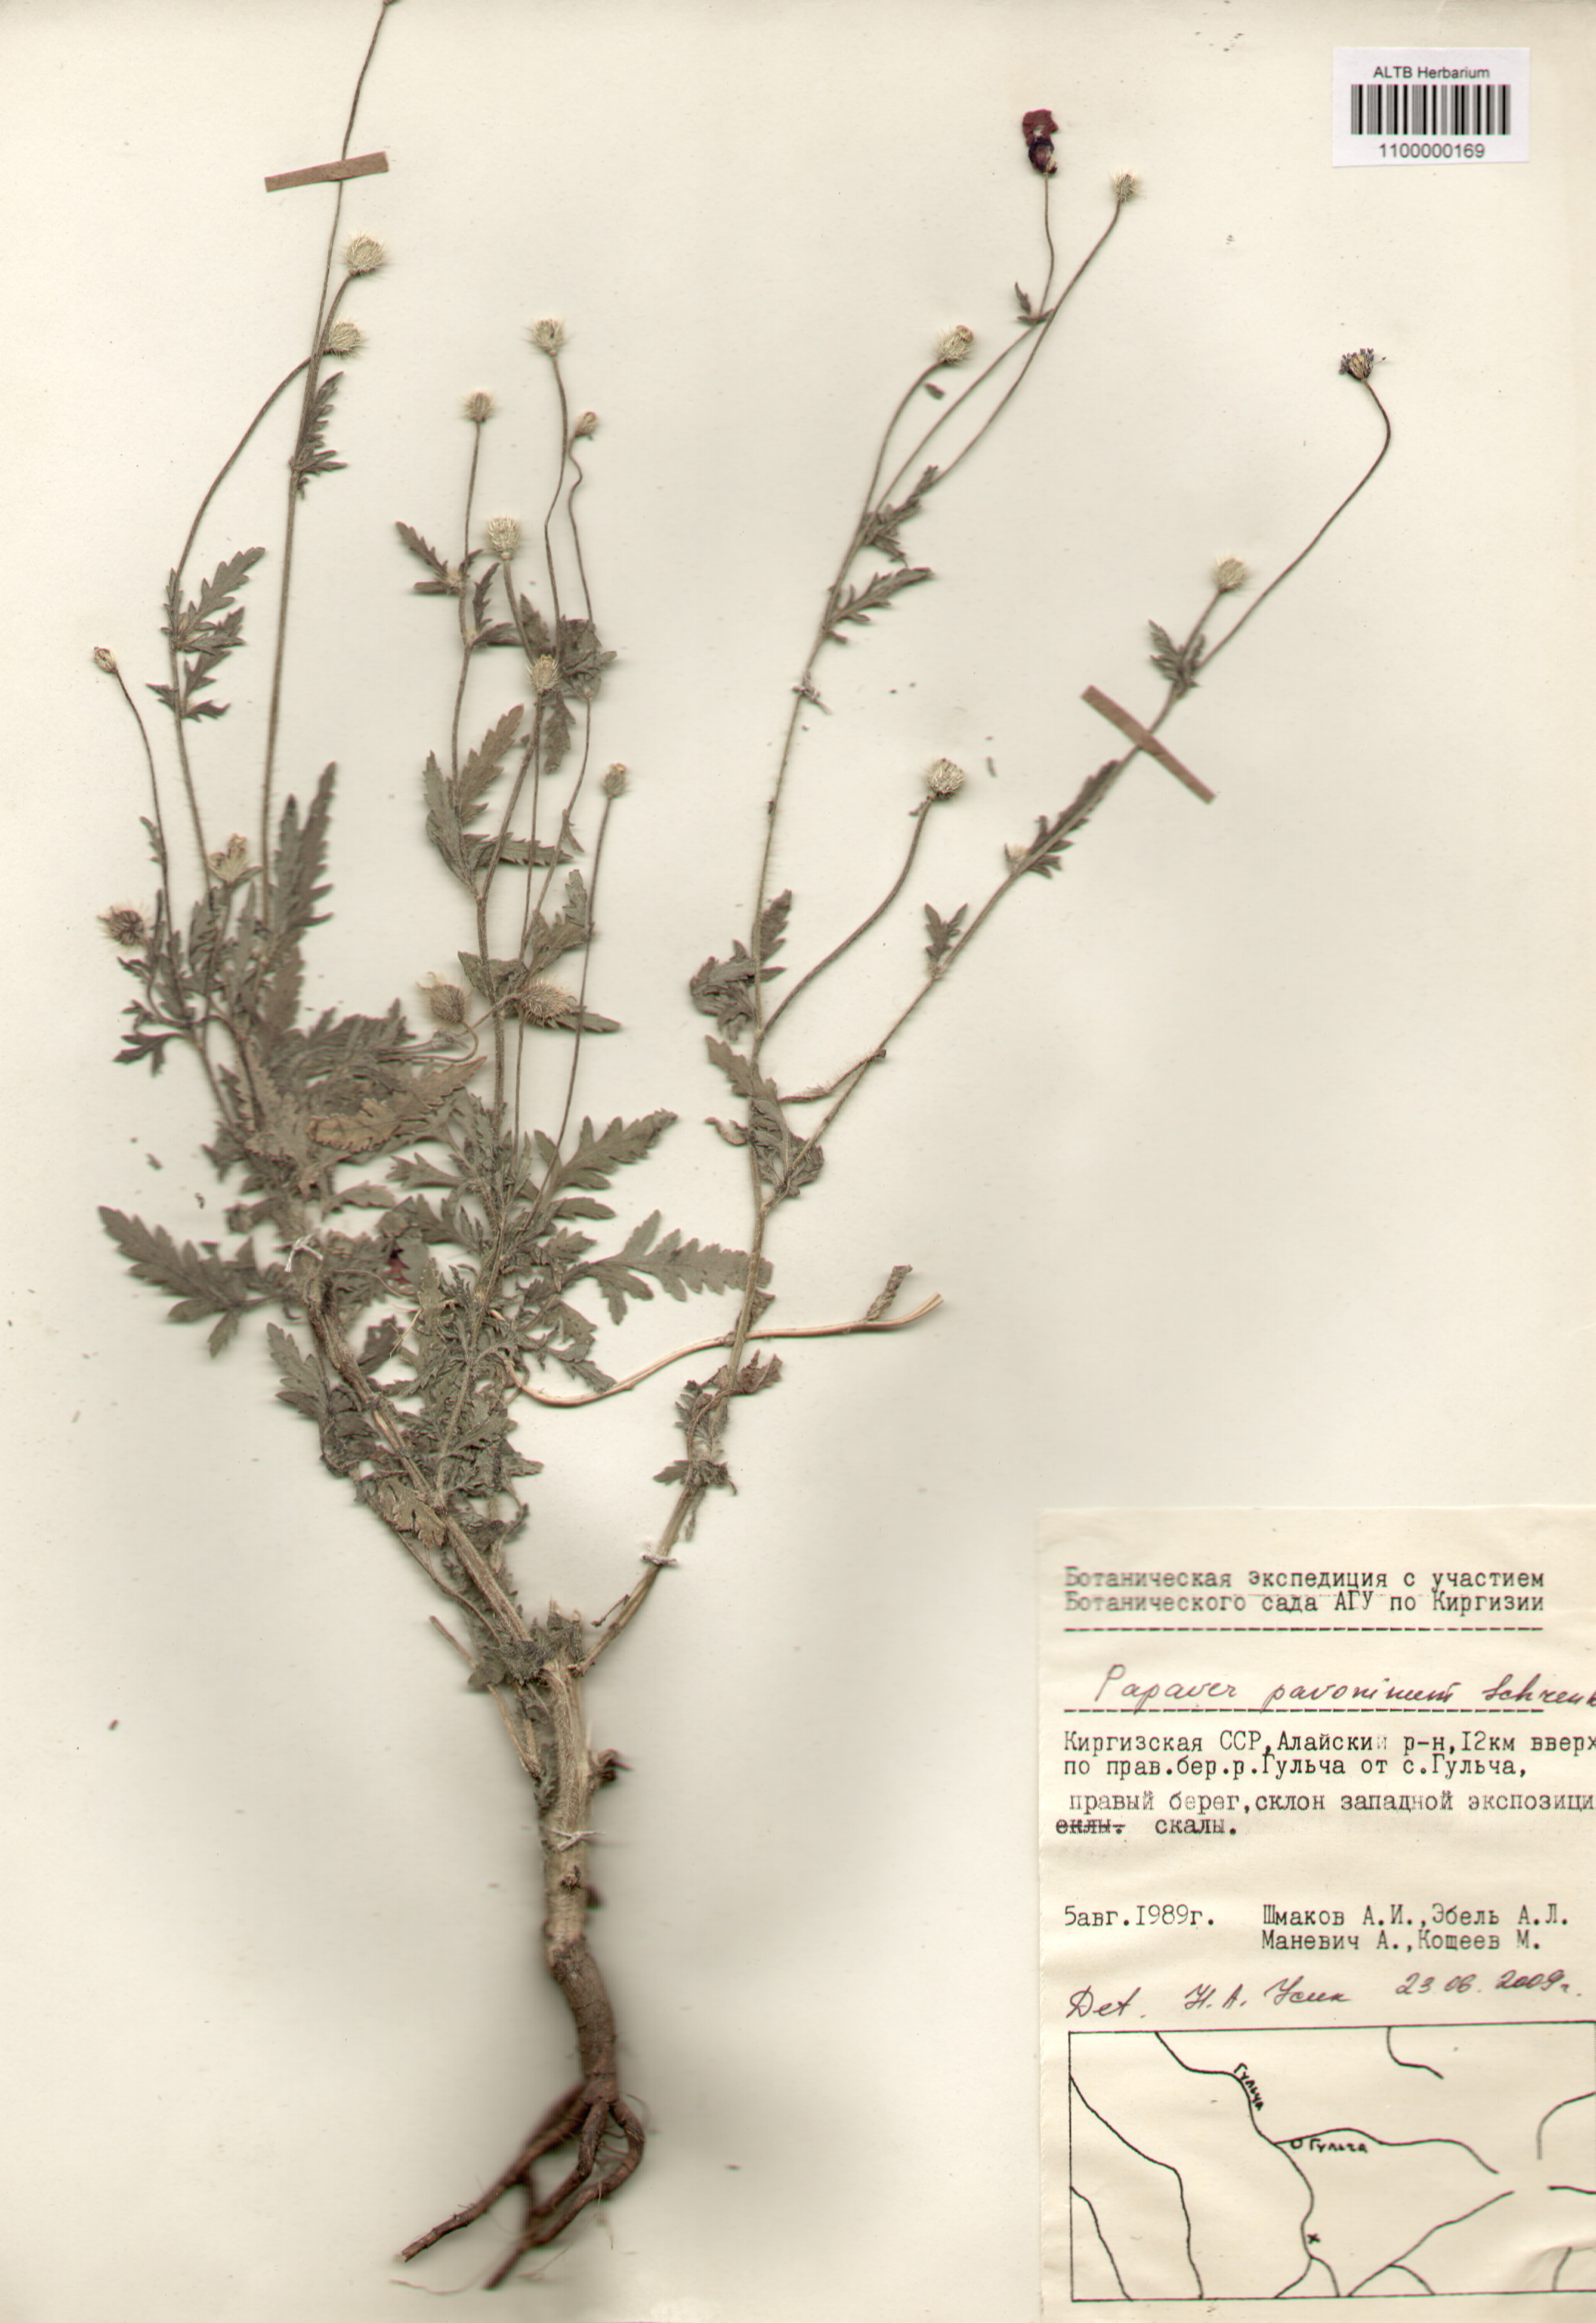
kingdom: Plantae
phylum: Tracheophyta
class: Magnoliopsida
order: Ranunculales
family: Papaveraceae
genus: Papaver
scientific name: Papaver pavoninum
